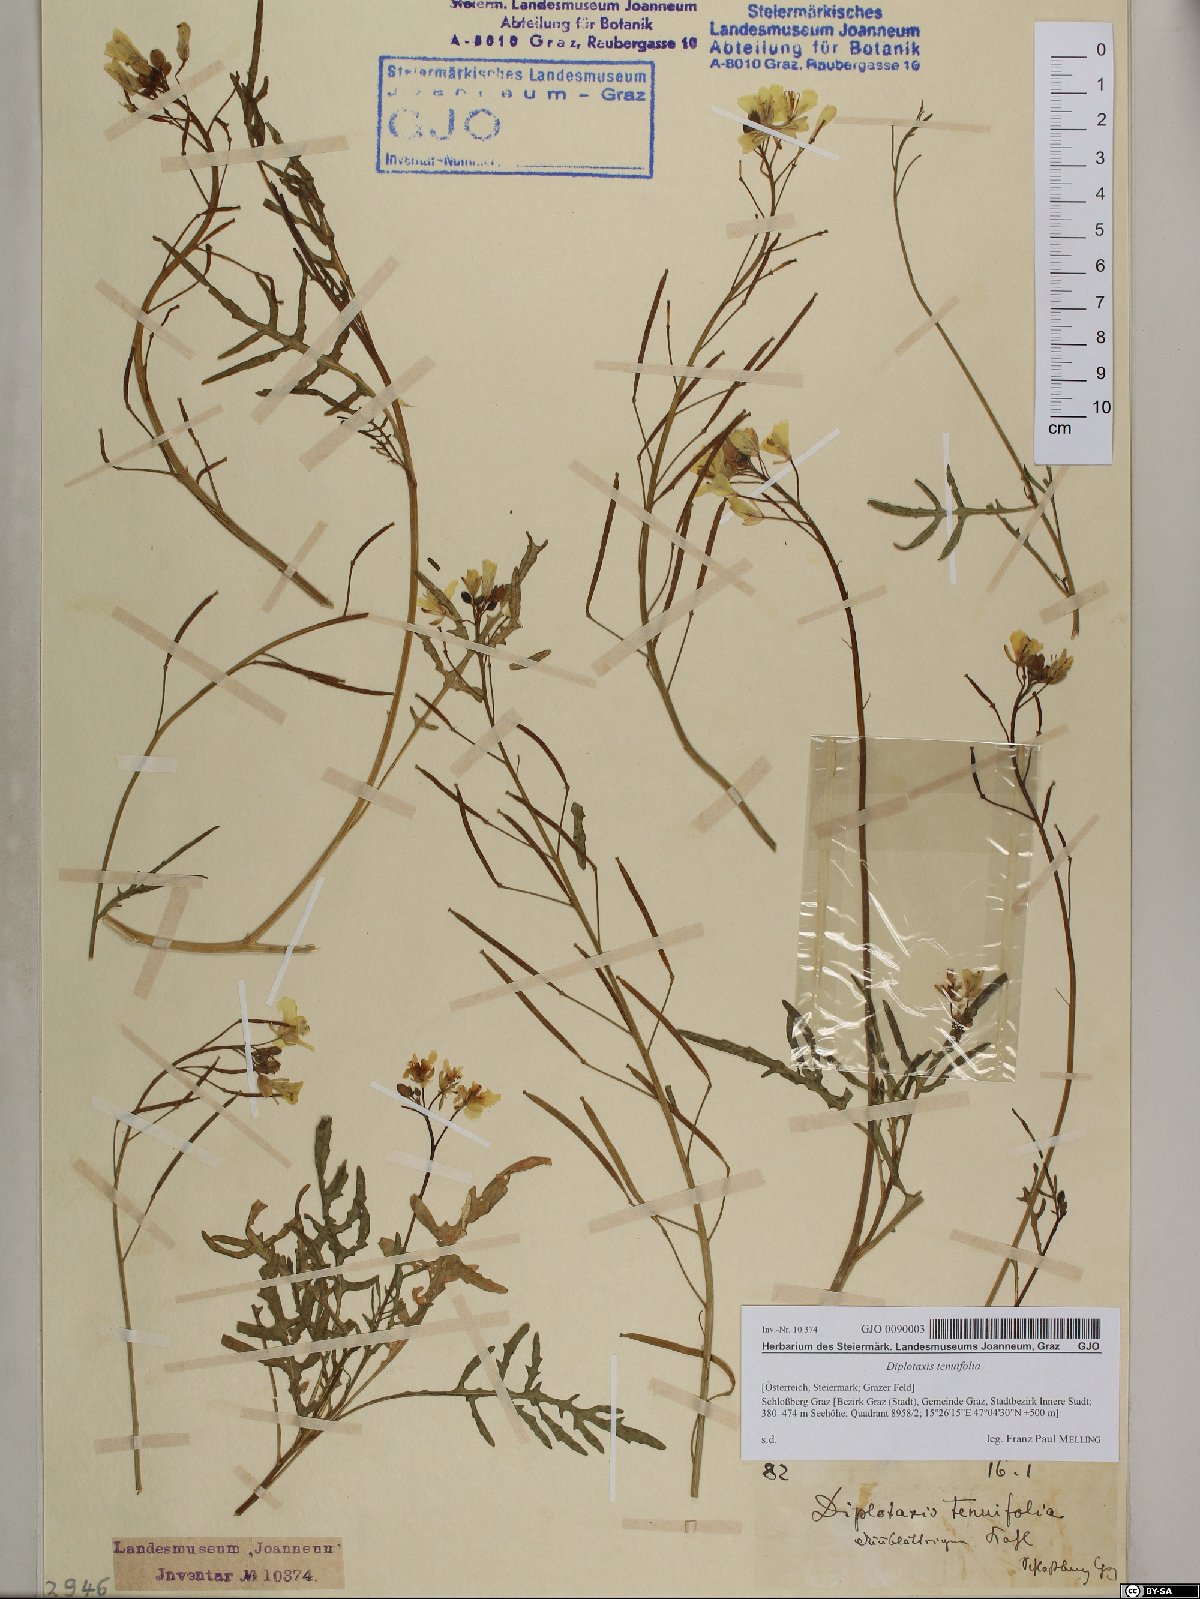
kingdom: Plantae
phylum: Tracheophyta
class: Magnoliopsida
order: Brassicales
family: Brassicaceae
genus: Diplotaxis
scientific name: Diplotaxis tenuifolia
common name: Perennial wall-rocket
